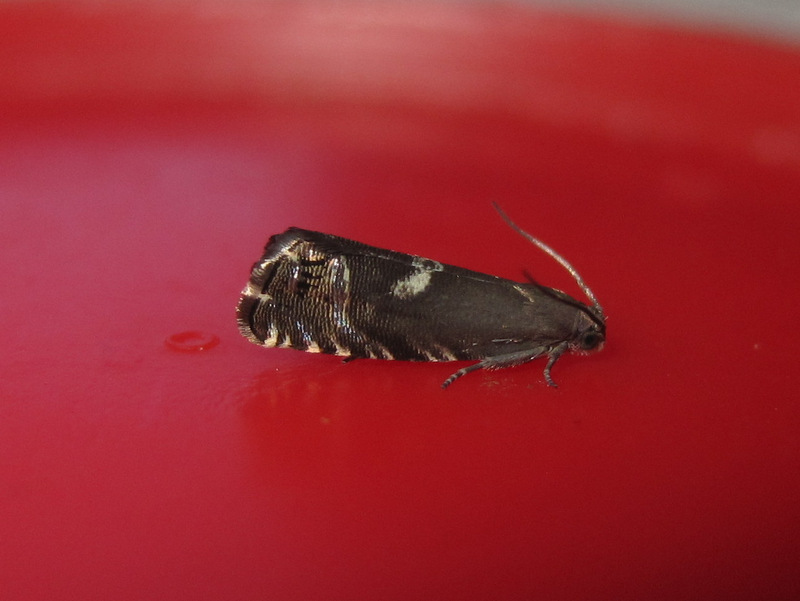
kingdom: Animalia
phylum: Arthropoda
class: Insecta
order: Lepidoptera
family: Tortricidae
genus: Cydia
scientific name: Cydia cognatana
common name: Highland piercer
